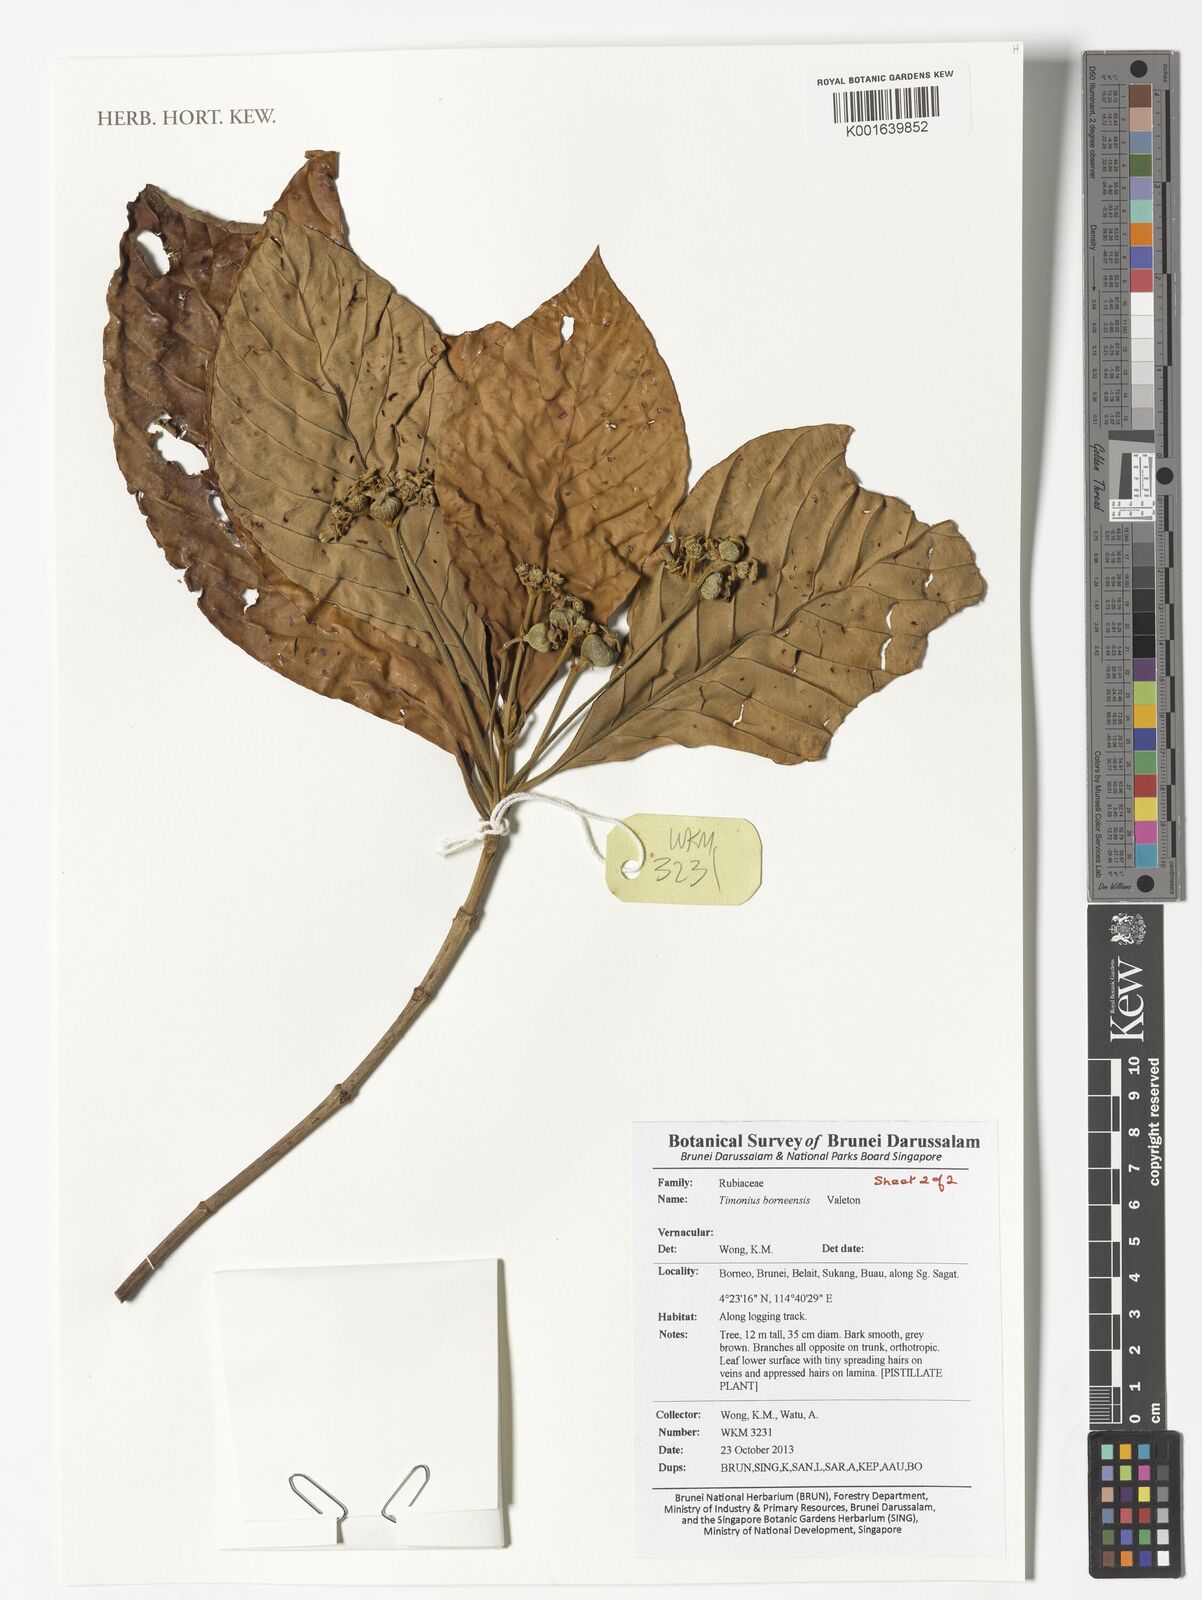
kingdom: Plantae
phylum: Tracheophyta
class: Magnoliopsida
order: Gentianales
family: Rubiaceae
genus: Timonius
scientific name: Timonius borneensis
